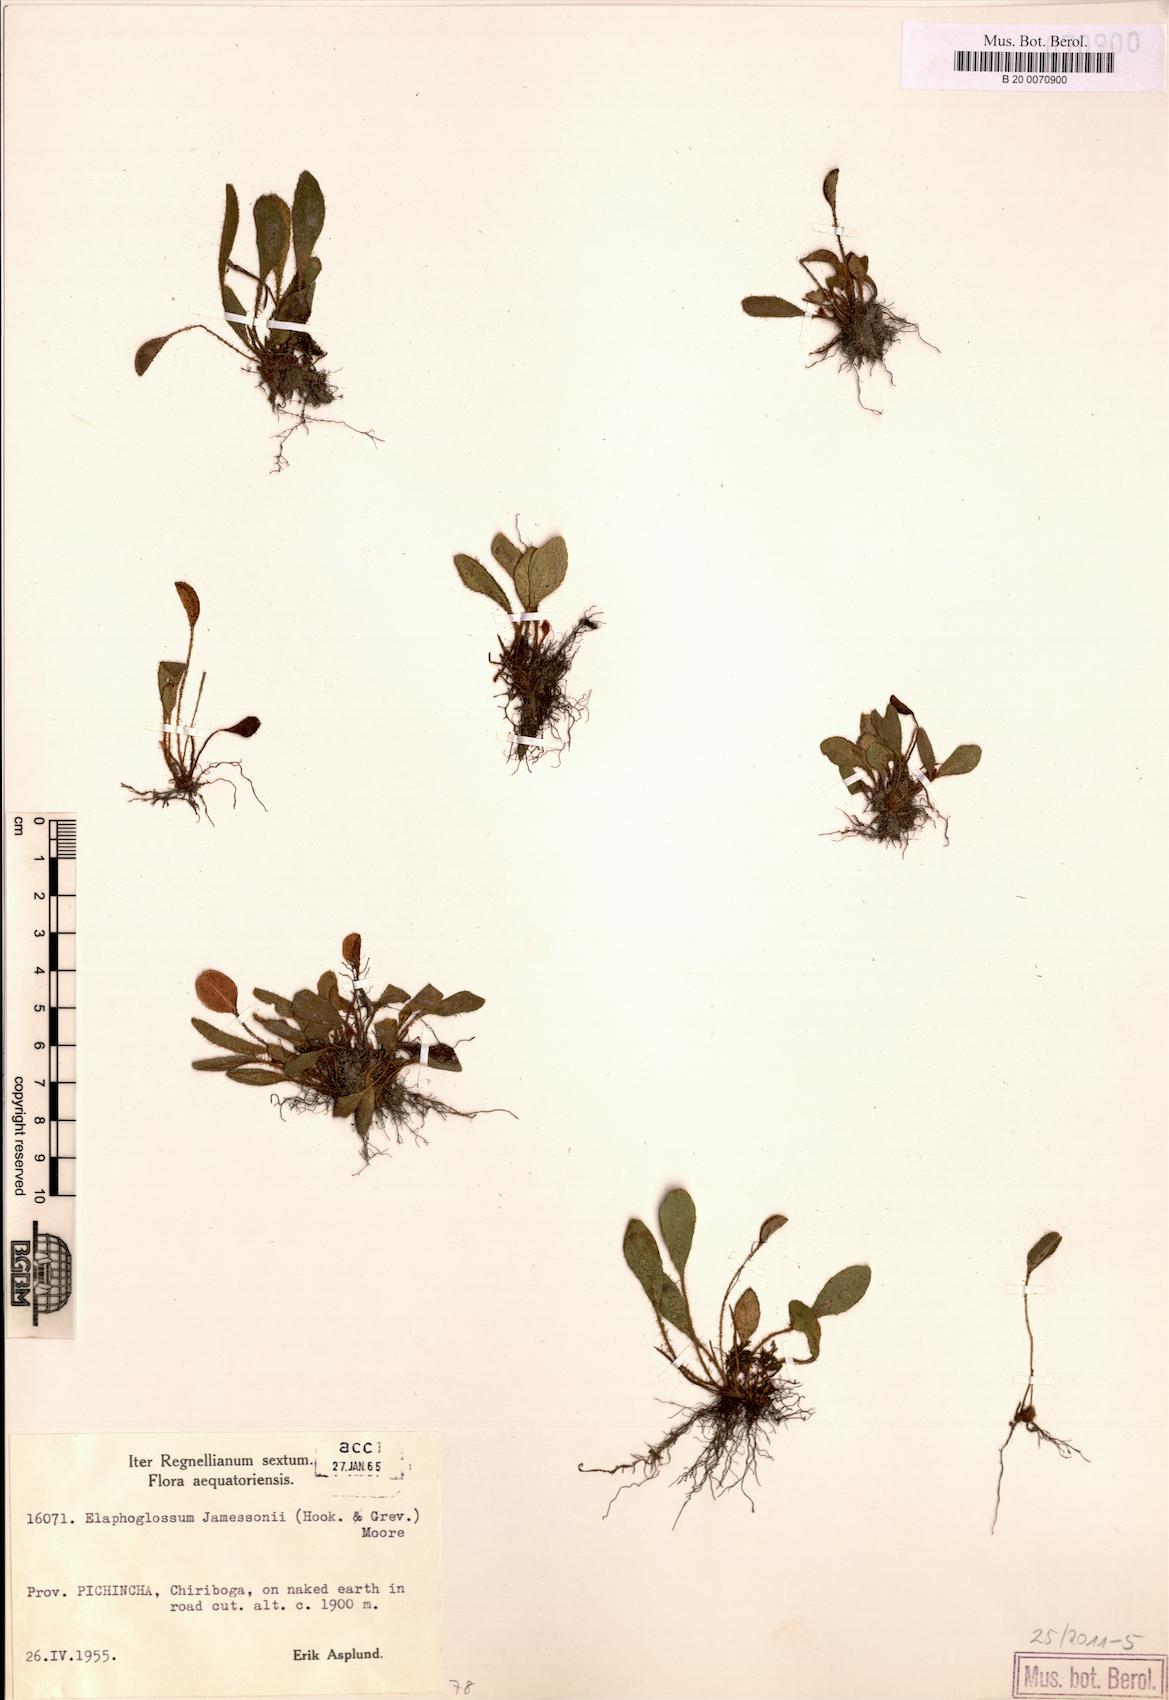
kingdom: Plantae
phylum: Tracheophyta
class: Polypodiopsida
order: Polypodiales
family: Dryopteridaceae
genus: Elaphoglossum
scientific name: Elaphoglossum piloselloides
